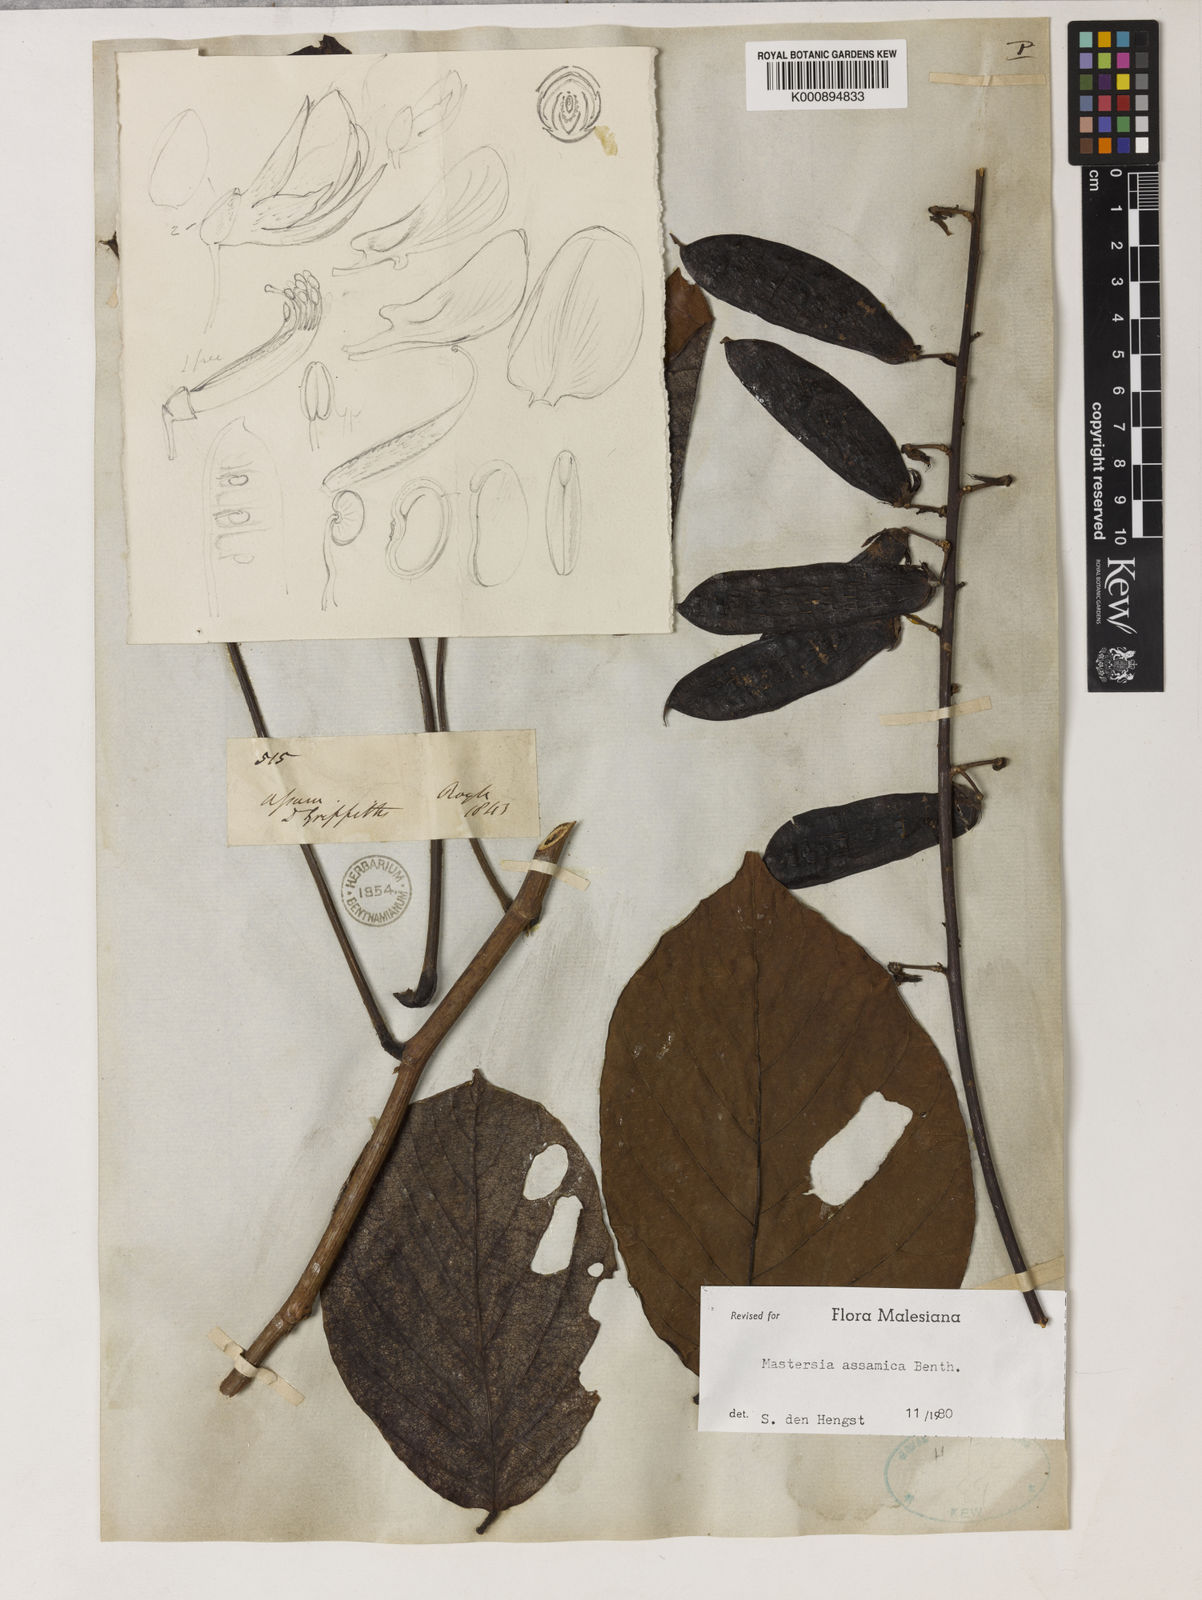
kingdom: Plantae
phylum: Tracheophyta
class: Magnoliopsida
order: Fabales
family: Fabaceae
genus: Mastersia
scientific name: Mastersia assamica
